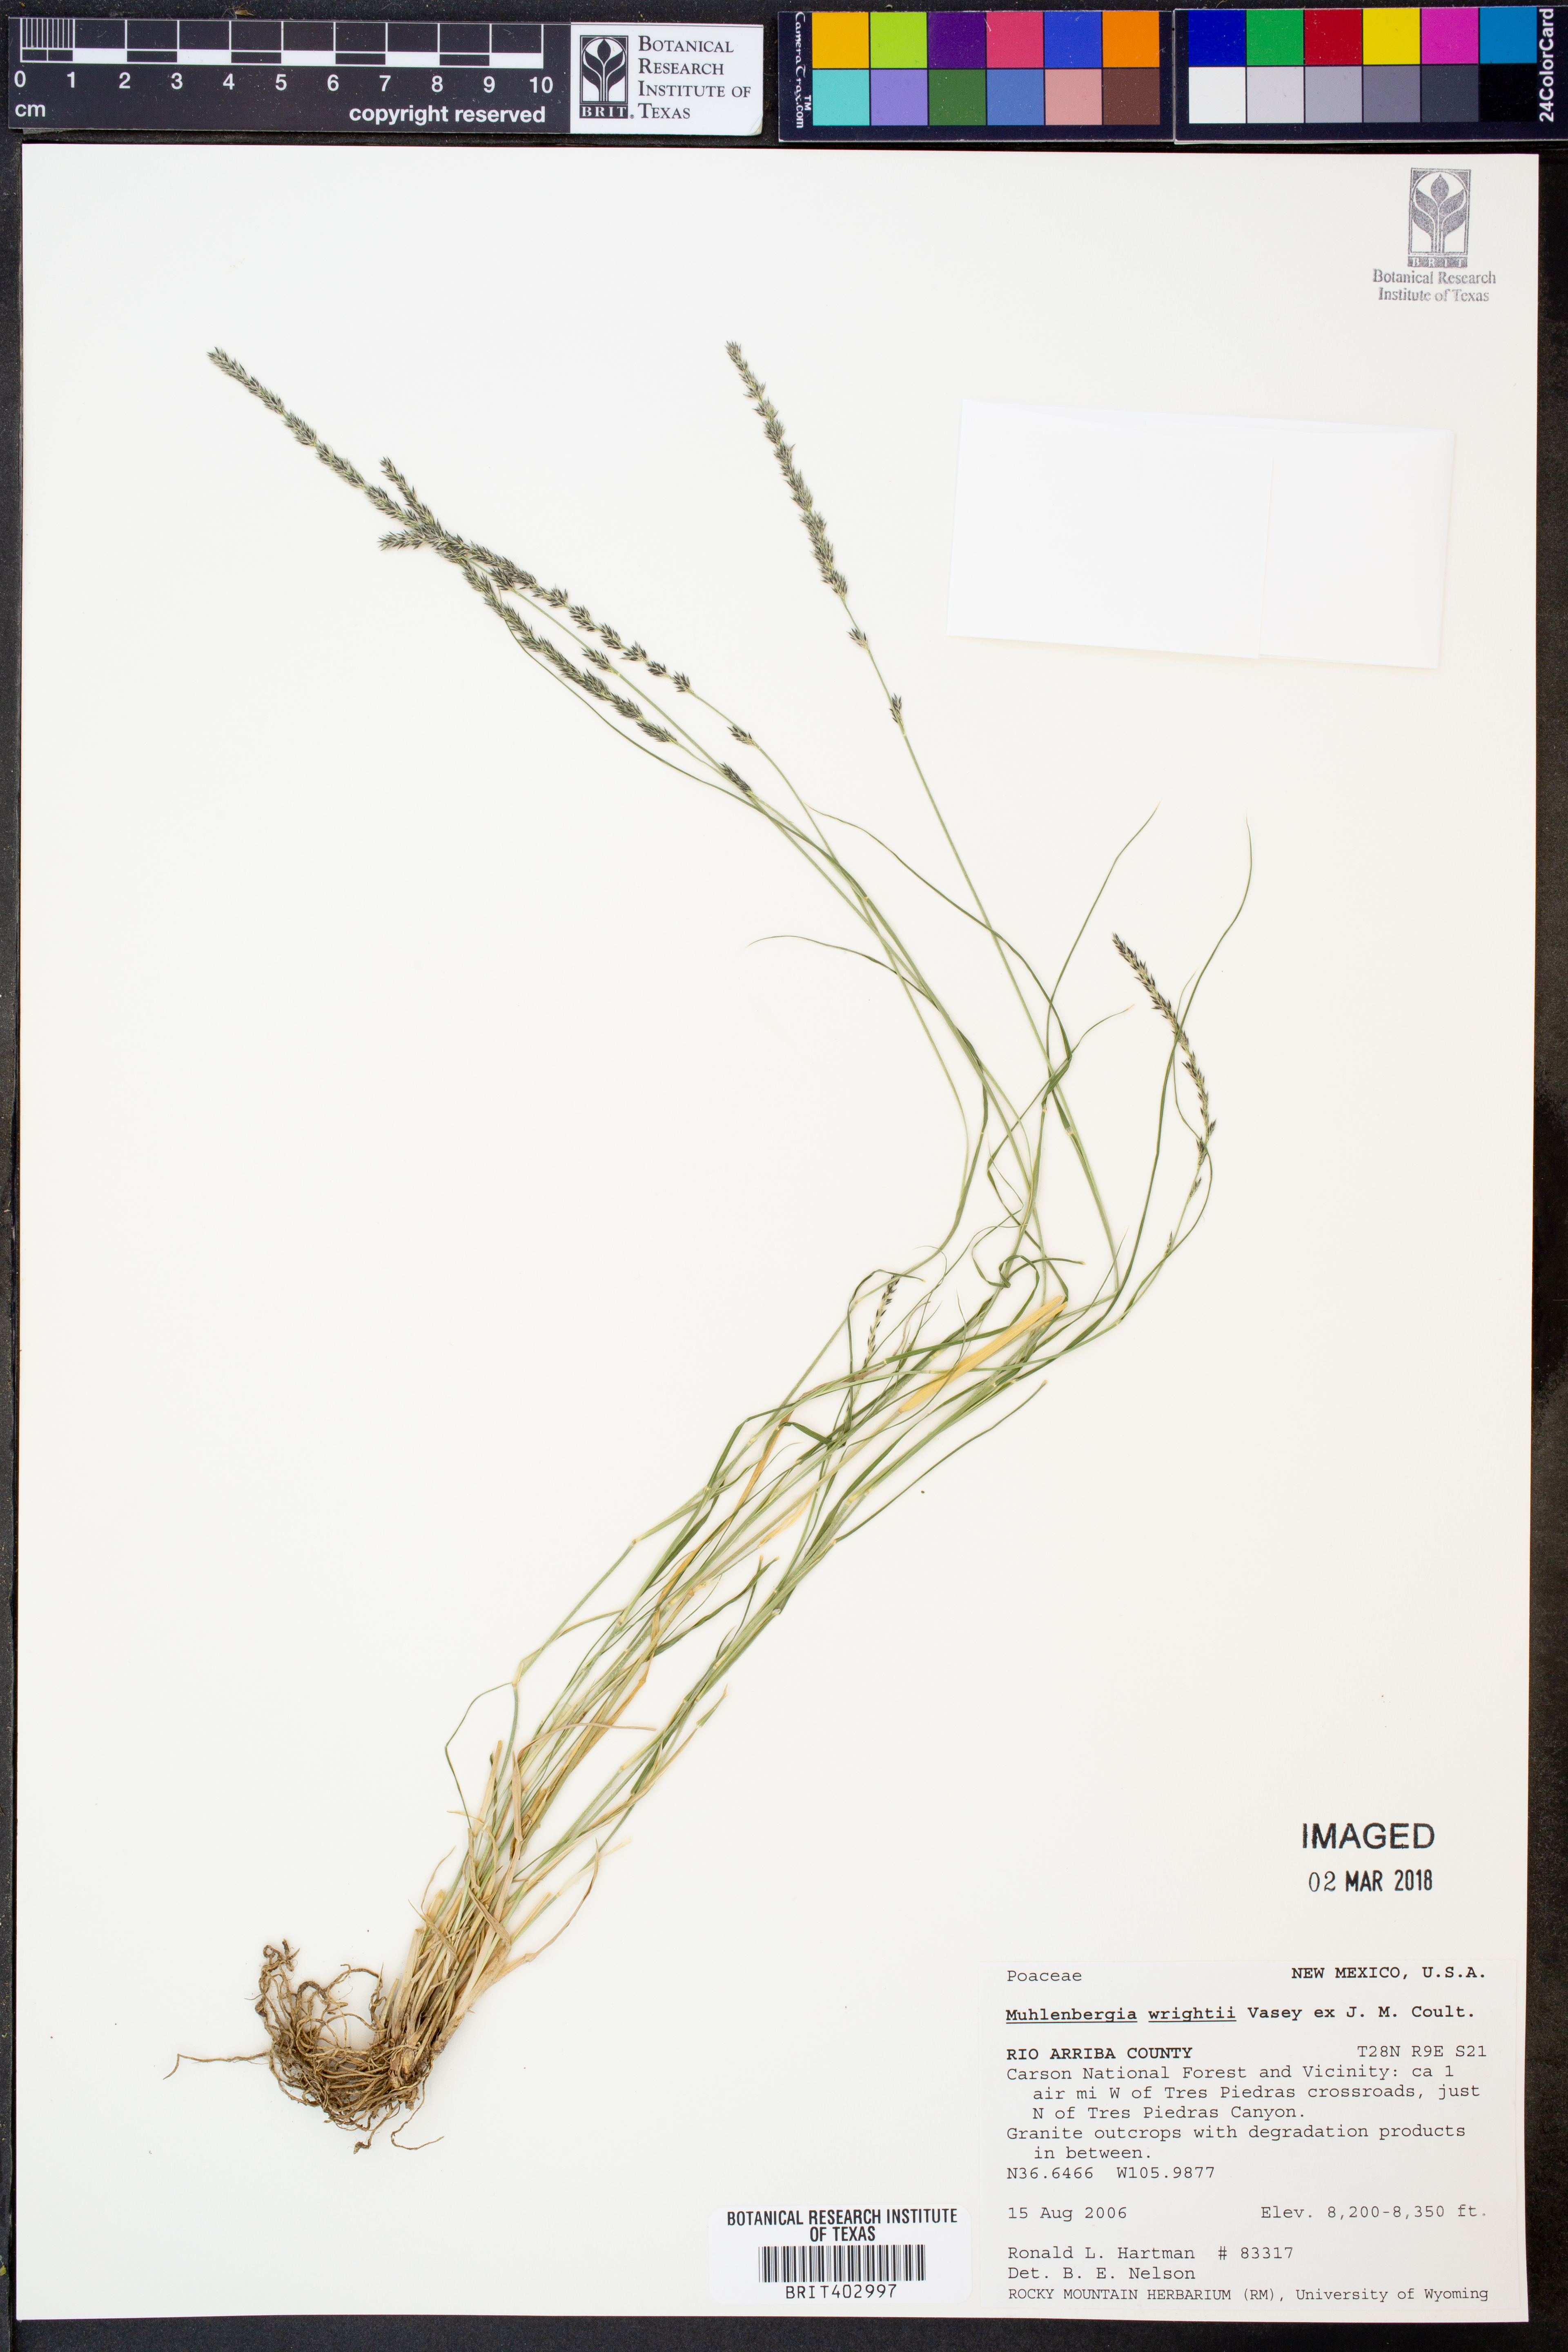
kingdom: Plantae
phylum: Tracheophyta
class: Liliopsida
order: Poales
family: Poaceae
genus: Muhlenbergia
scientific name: Muhlenbergia wrightii
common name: Spike muhly
